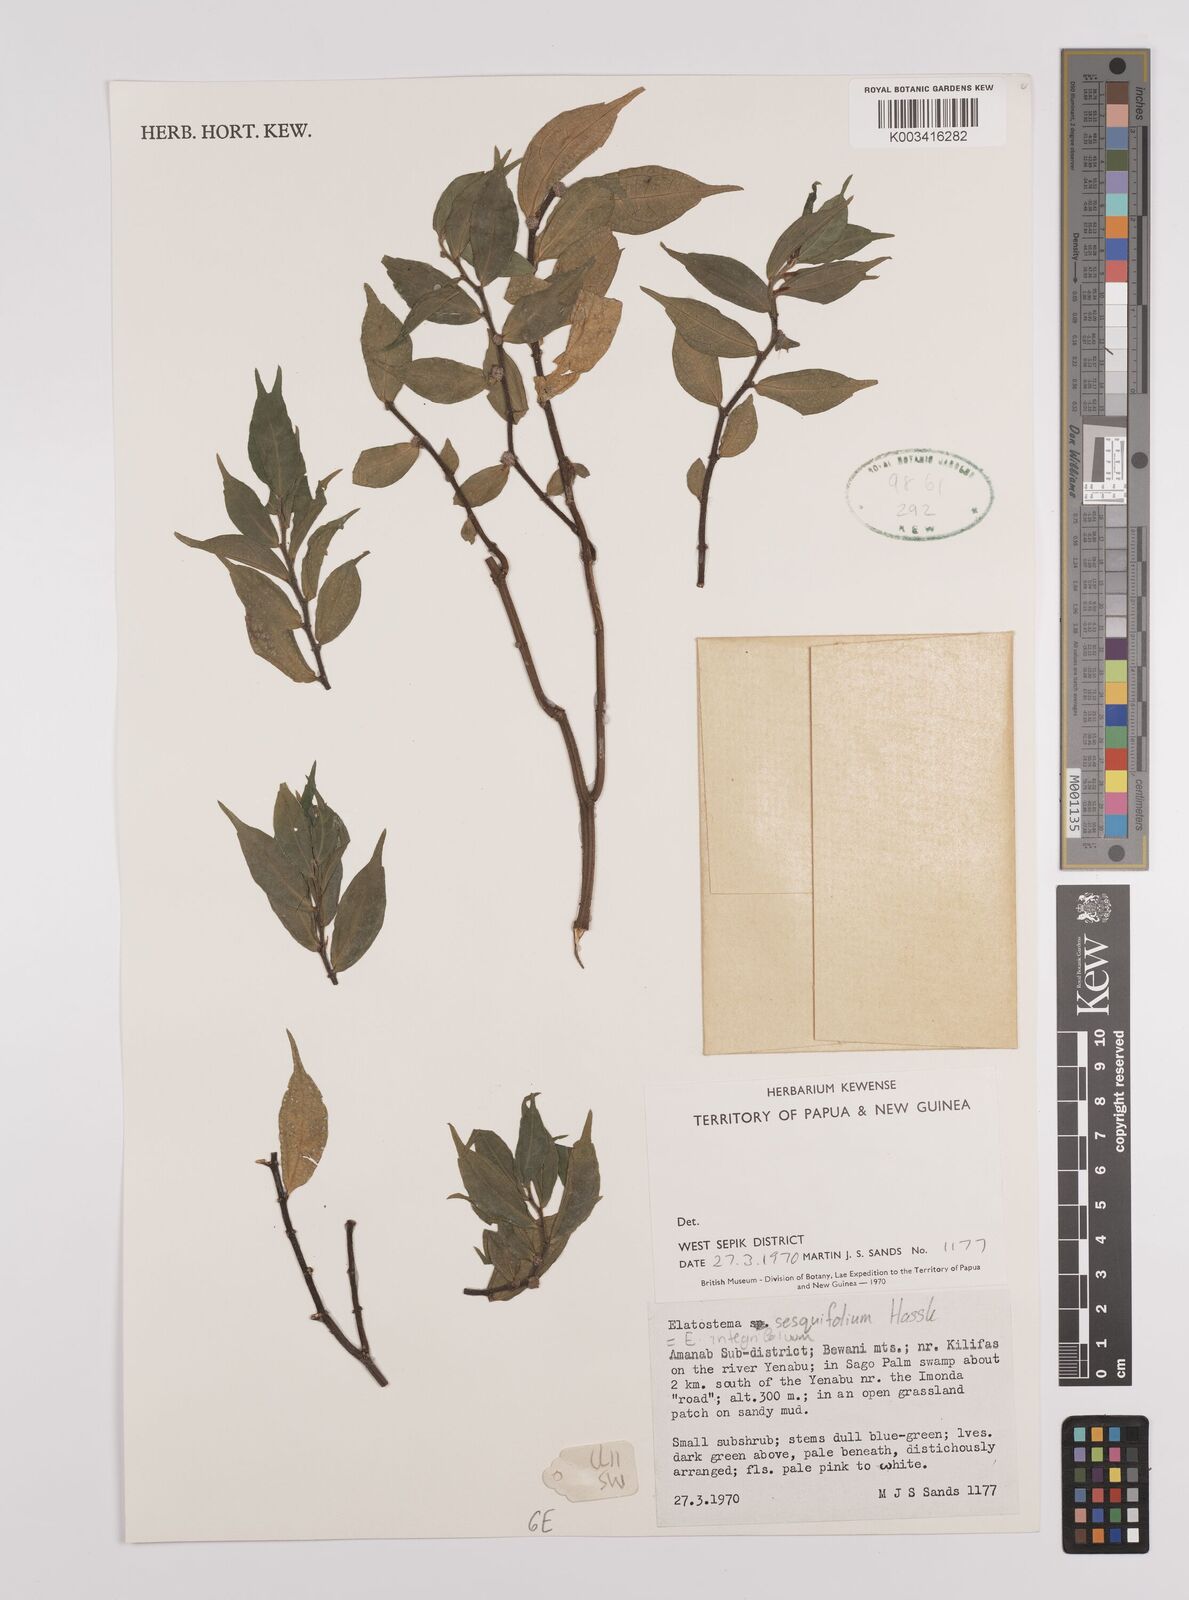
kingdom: Plantae
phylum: Tracheophyta
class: Magnoliopsida
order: Rosales
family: Urticaceae
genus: Elatostema
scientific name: Elatostema integrifolium
